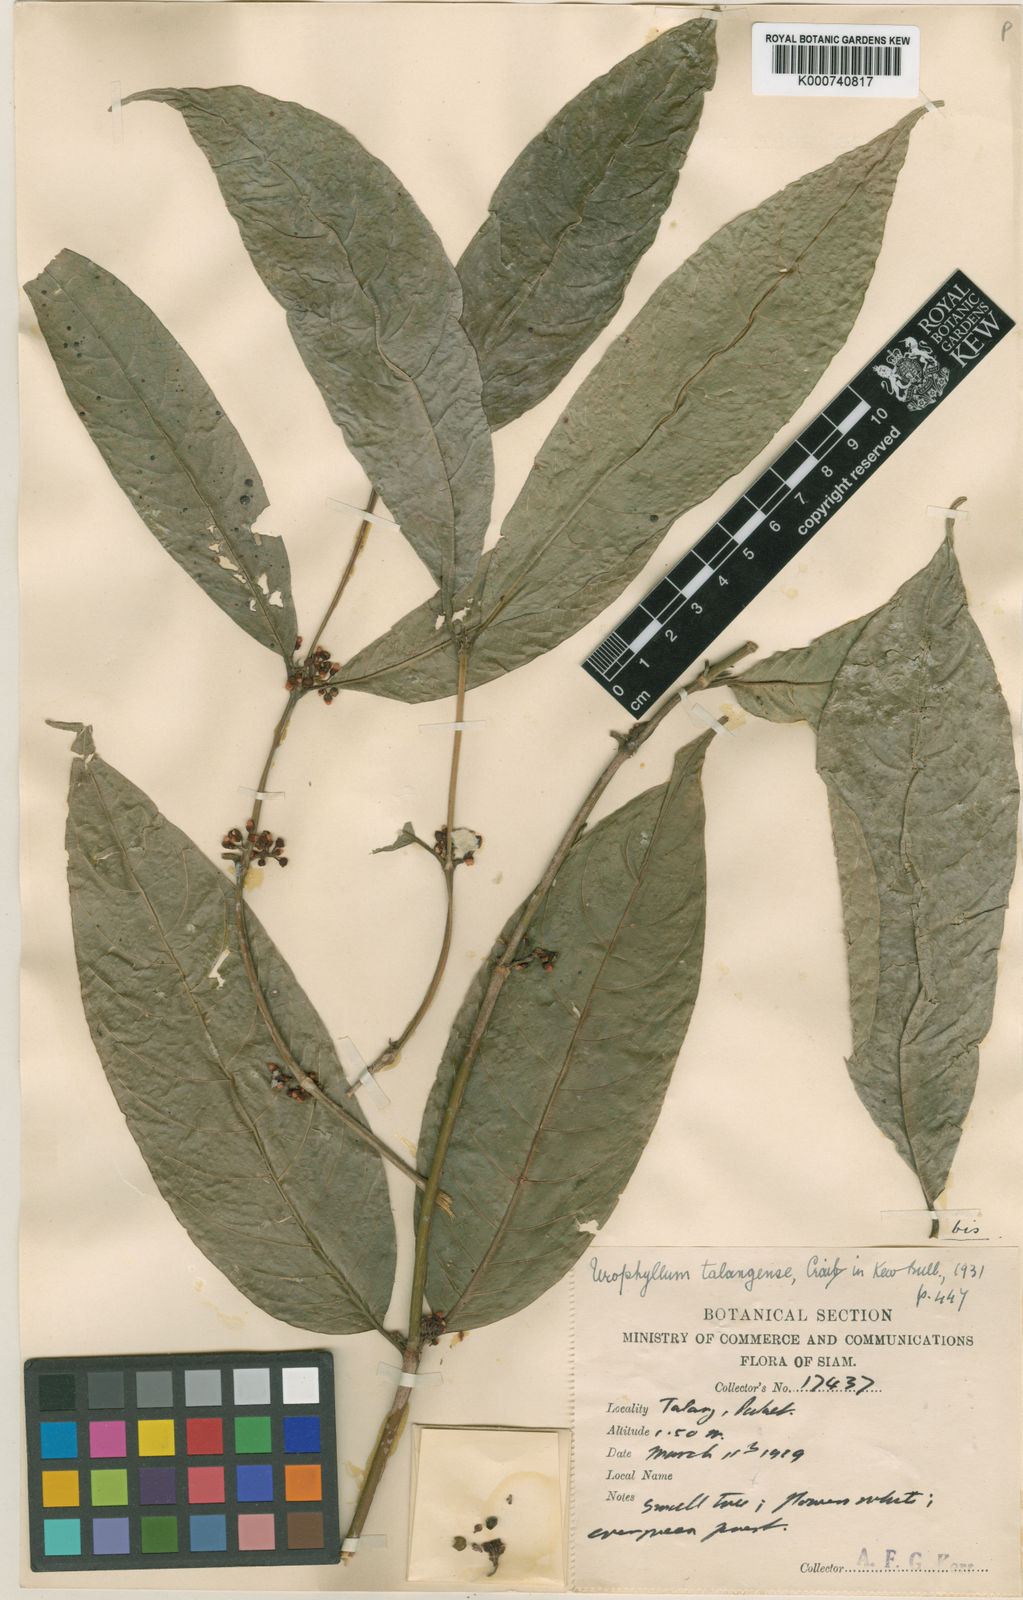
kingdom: Plantae
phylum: Tracheophyta
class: Magnoliopsida
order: Gentianales
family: Rubiaceae
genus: Urophyllum
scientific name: Urophyllum talangense
